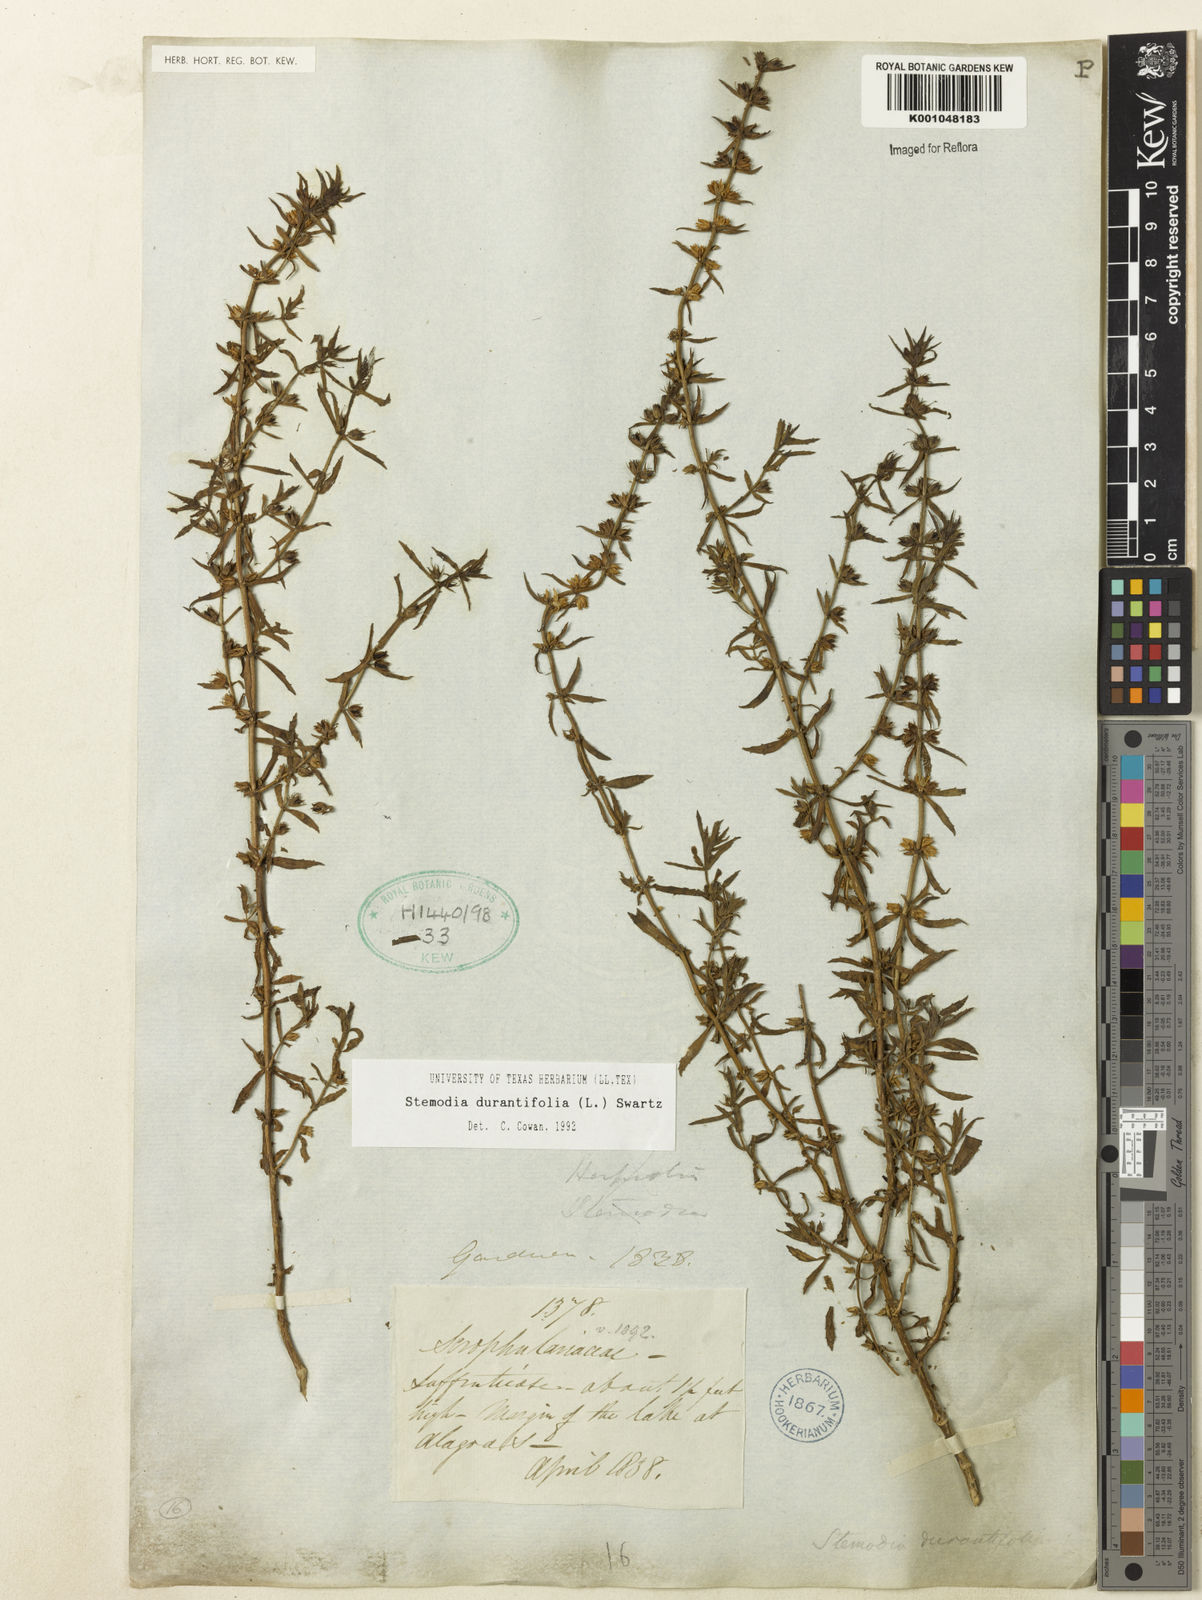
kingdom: Plantae
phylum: Tracheophyta
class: Magnoliopsida
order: Lamiales
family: Plantaginaceae
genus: Stemodia
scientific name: Stemodia durantifolia
